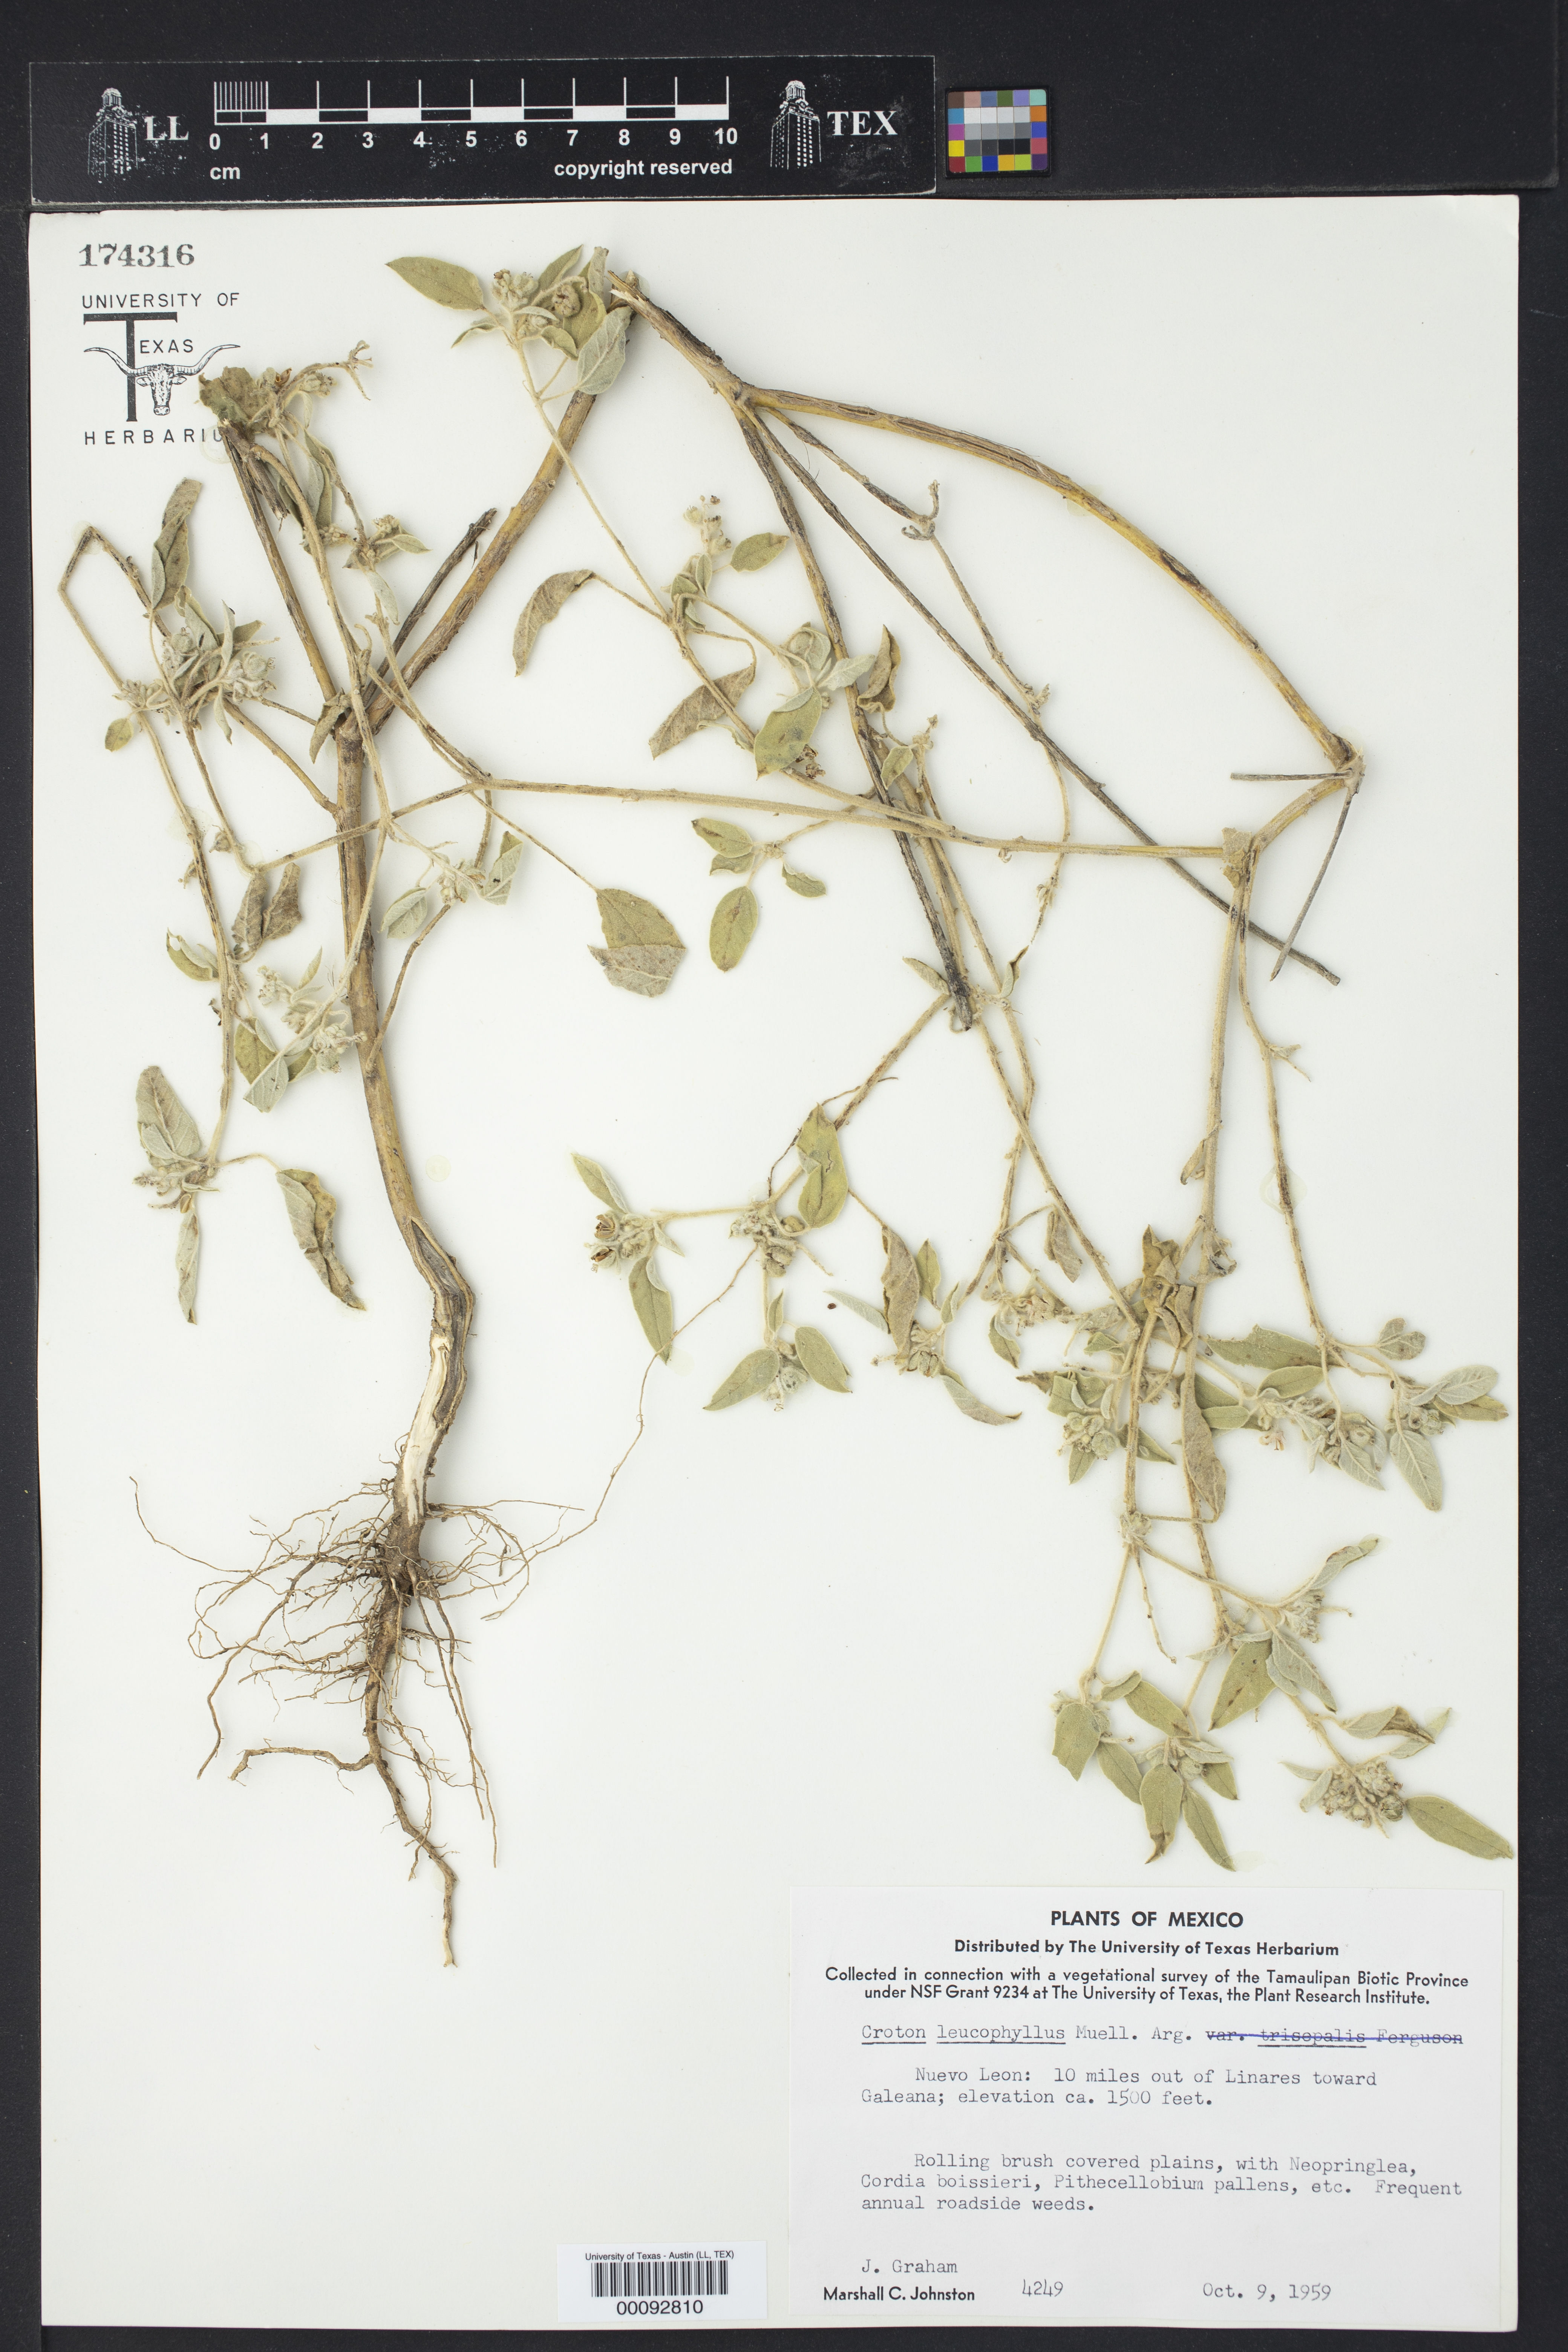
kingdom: Plantae
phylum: Tracheophyta
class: Magnoliopsida
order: Malpighiales
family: Euphorbiaceae
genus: Croton
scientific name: Croton leucophyllus
